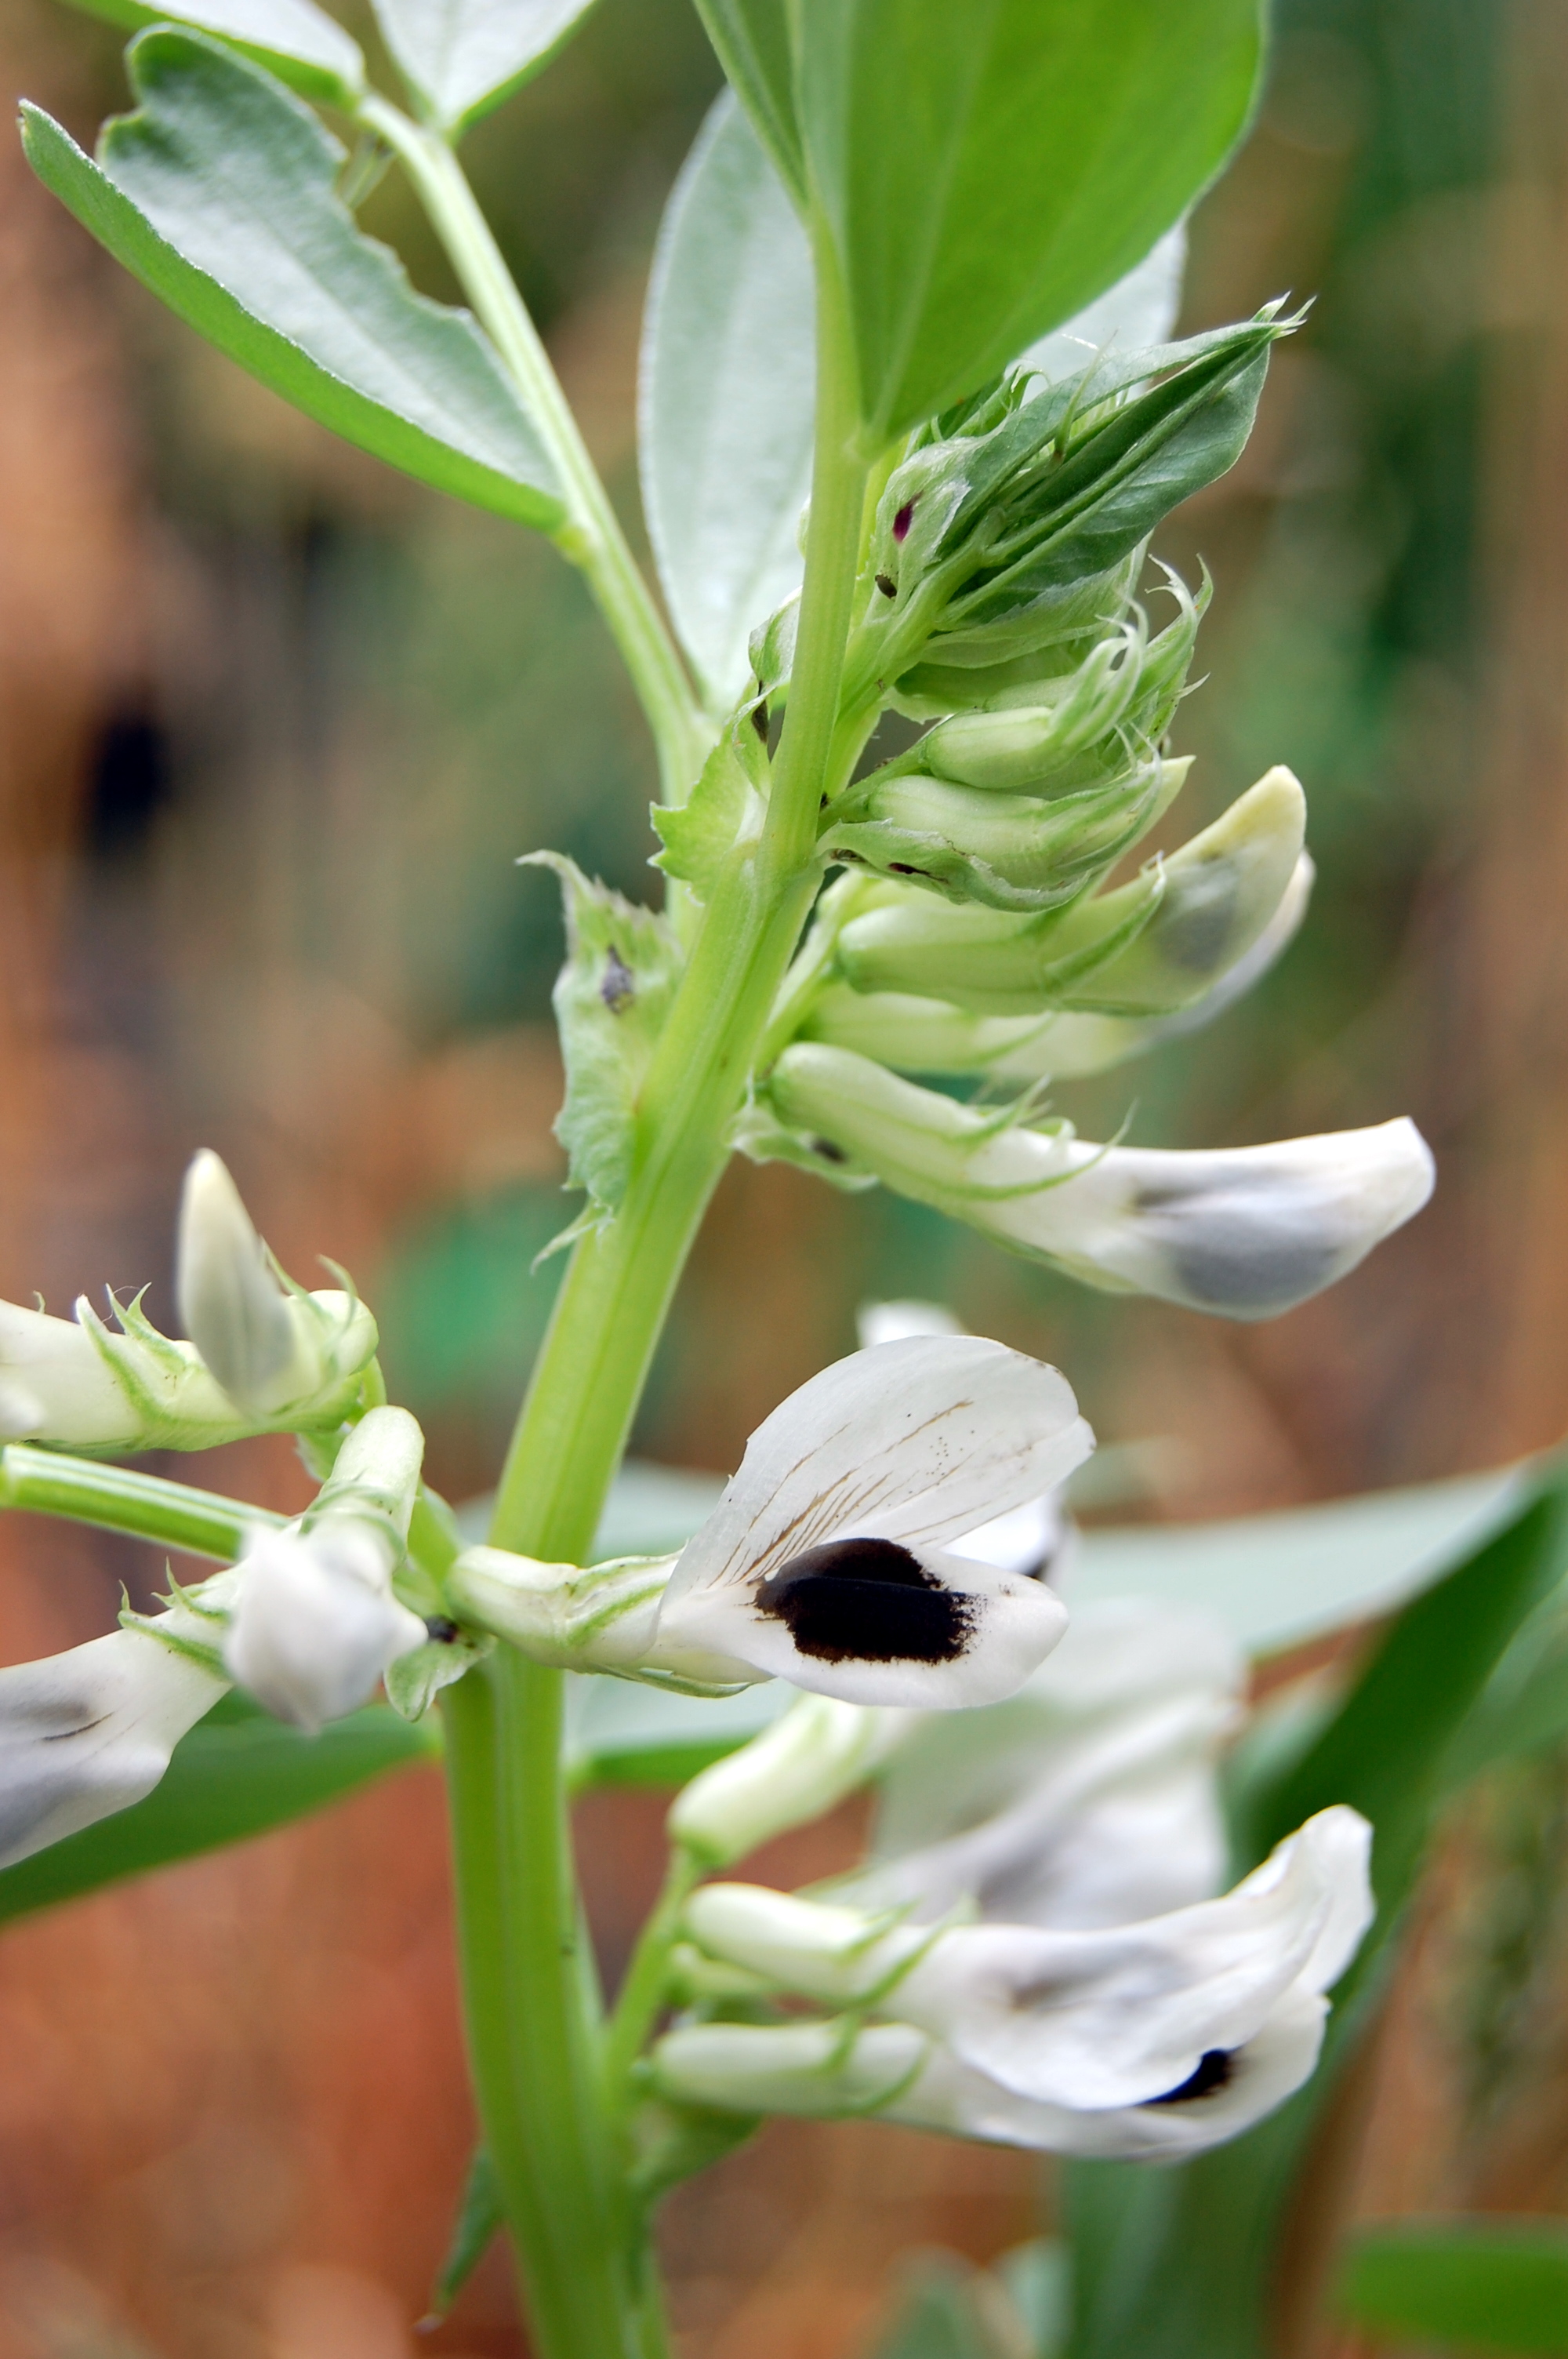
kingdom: Plantae
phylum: Tracheophyta
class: Magnoliopsida
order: Fabales
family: Fabaceae
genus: Vicia
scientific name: Vicia faba
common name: Broad bean
